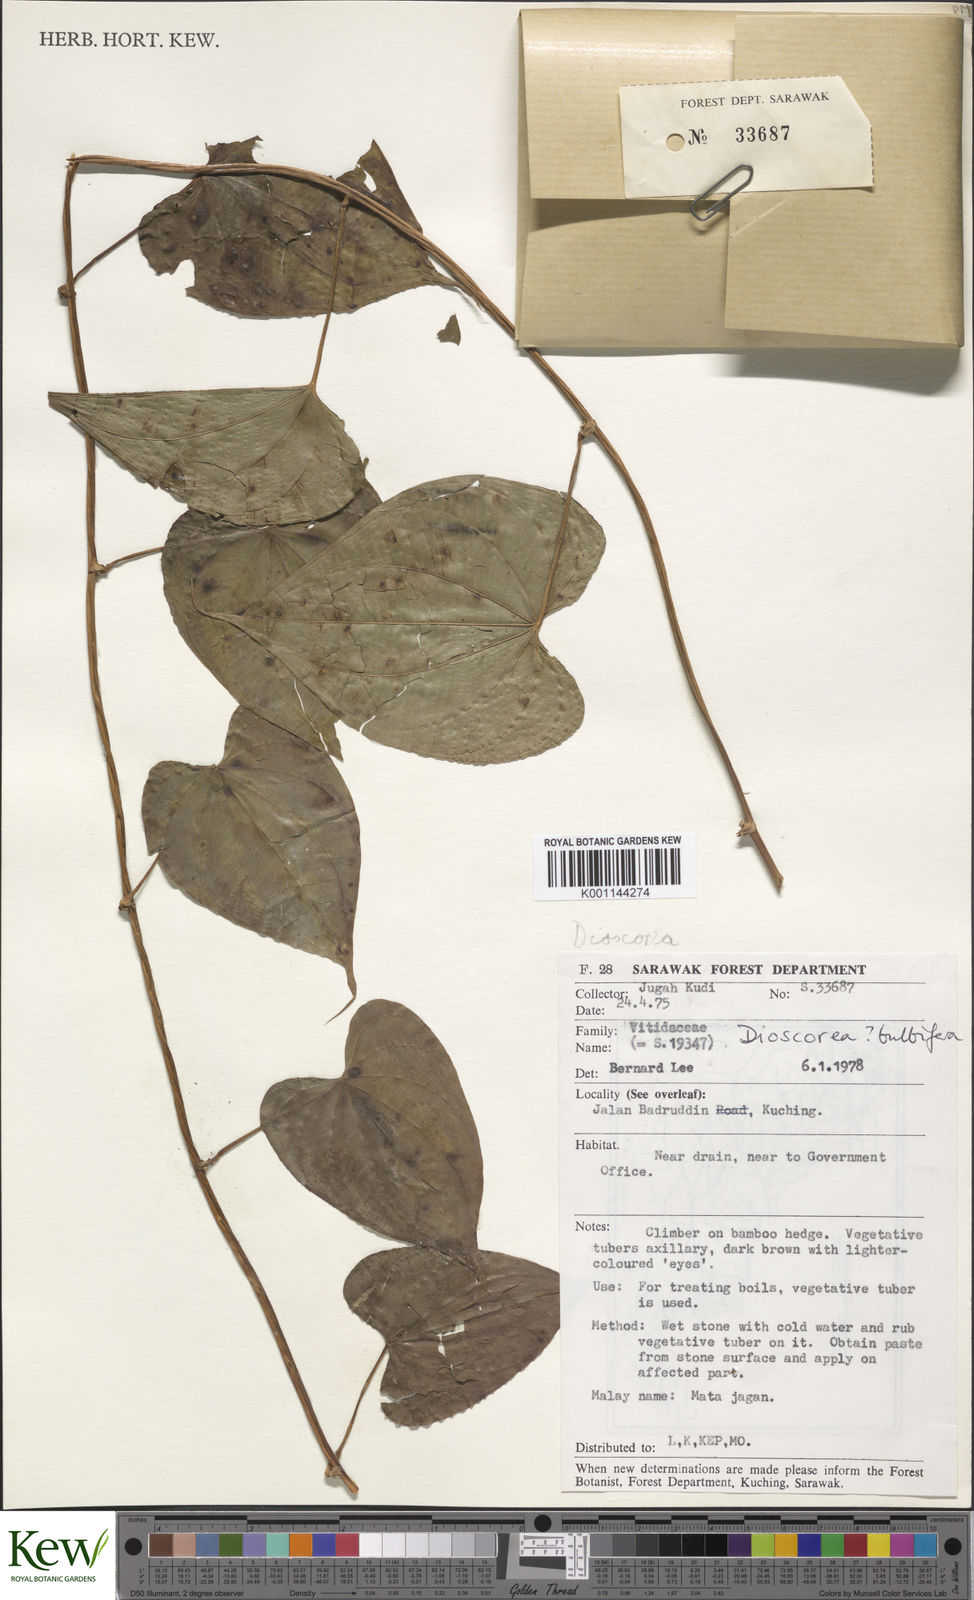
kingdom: Plantae
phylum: Tracheophyta
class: Liliopsida
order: Dioscoreales
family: Dioscoreaceae
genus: Dioscorea
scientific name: Dioscorea bulbifera
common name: Air yam
